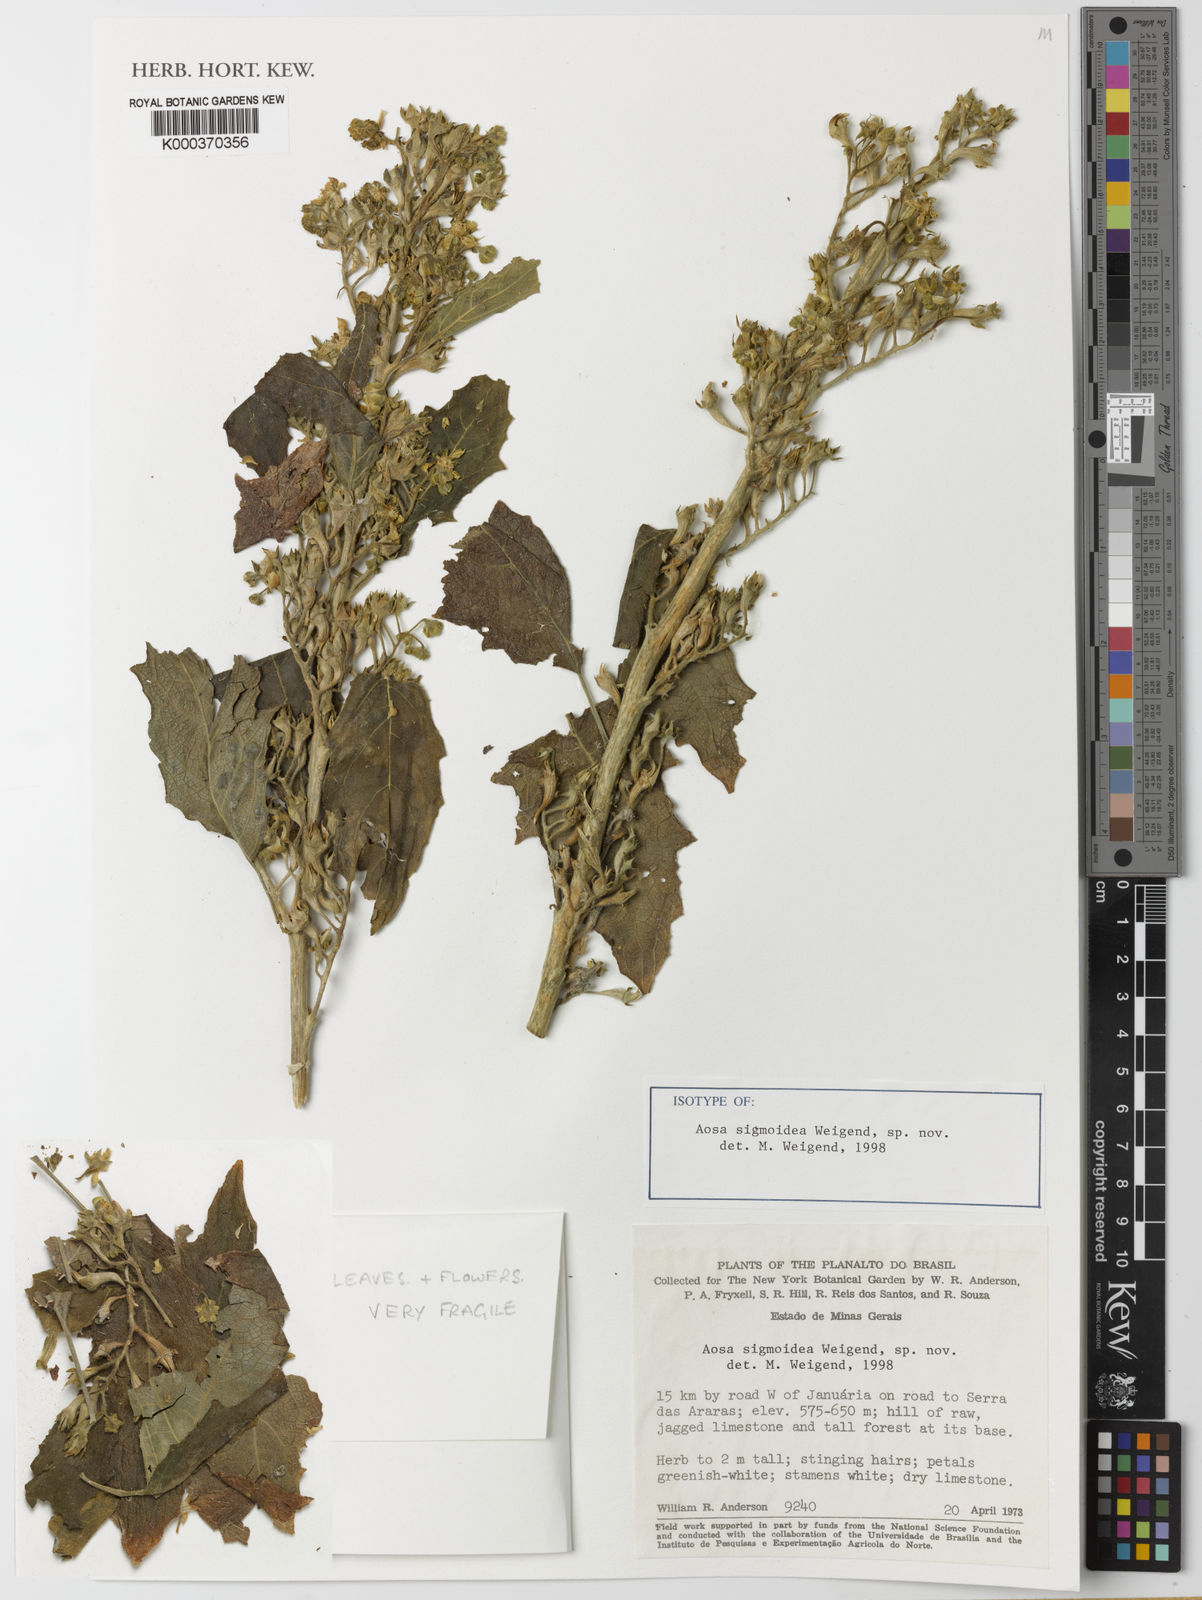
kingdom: Plantae
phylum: Tracheophyta
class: Magnoliopsida
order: Cornales
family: Loasaceae
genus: Aosa
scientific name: Aosa sigmoidea
